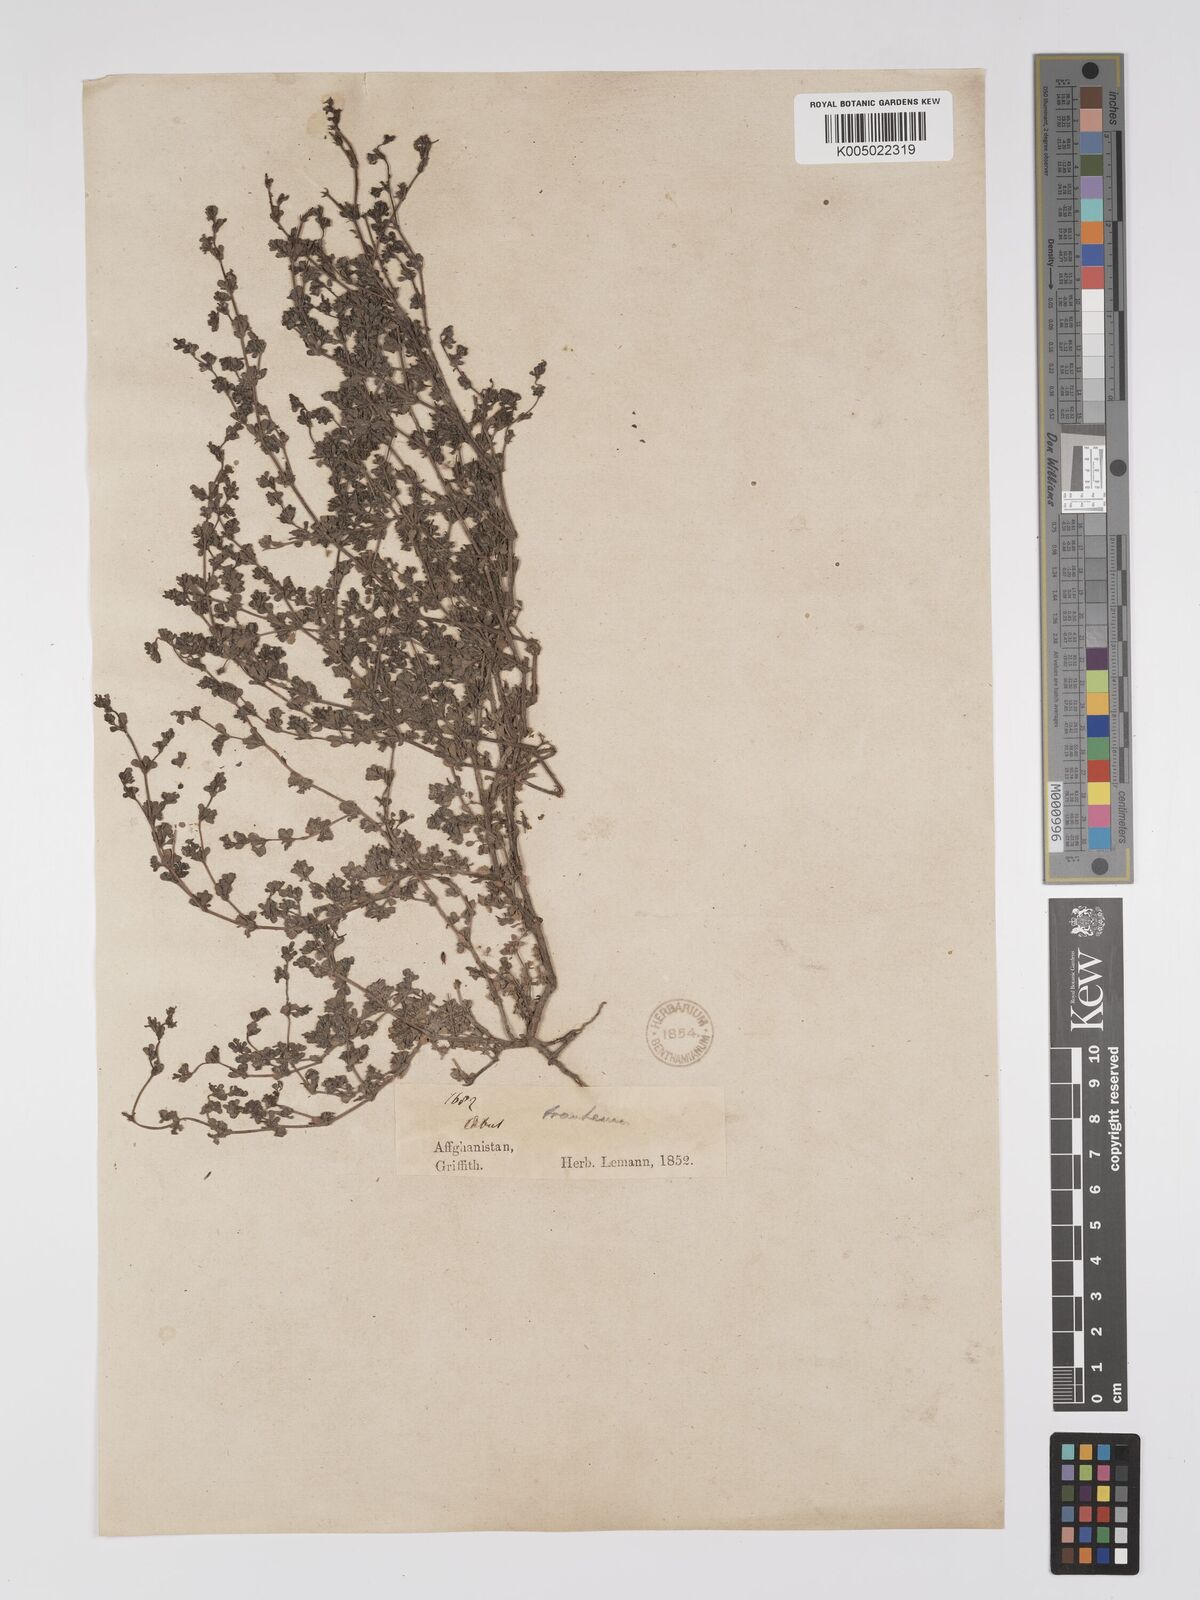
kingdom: Plantae
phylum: Tracheophyta
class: Magnoliopsida
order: Caryophyllales
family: Frankeniaceae
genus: Frankenia
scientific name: Frankenia pulverulenta
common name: European seaheath
